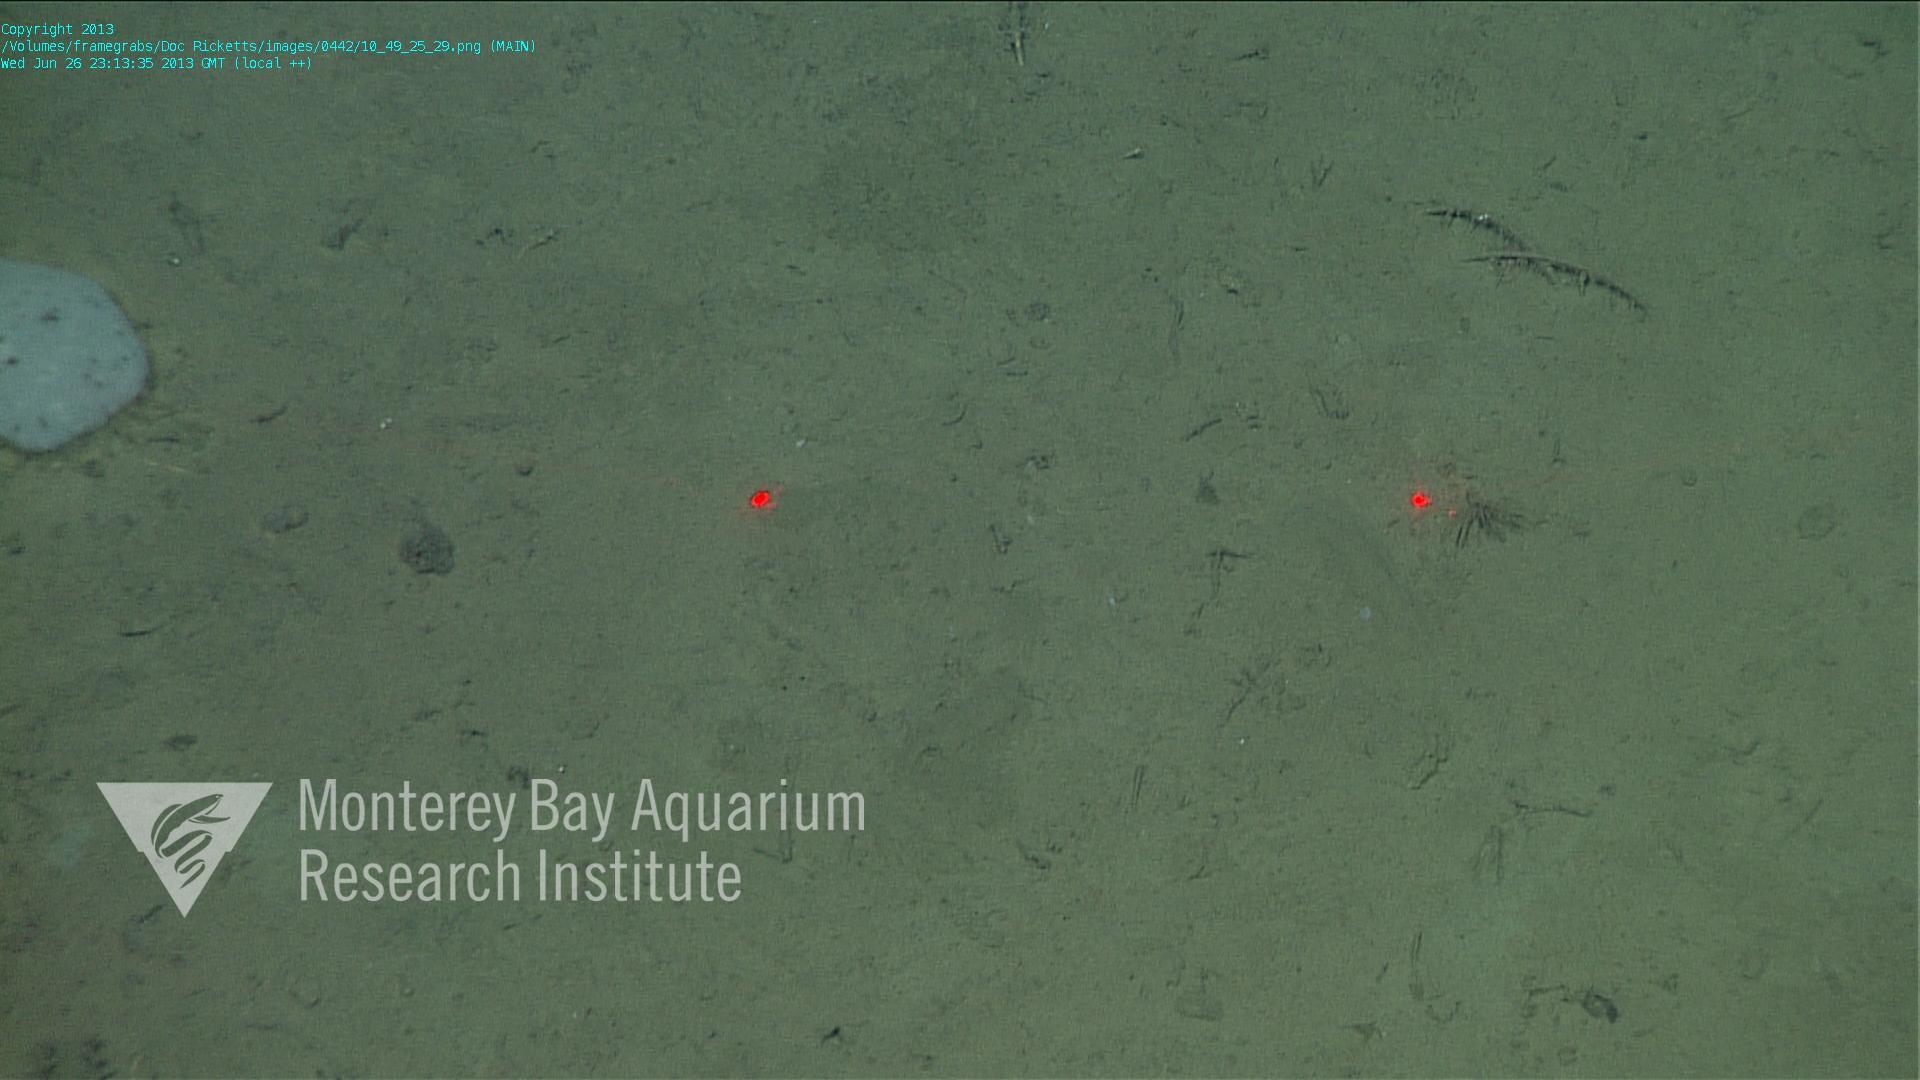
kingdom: Animalia
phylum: Porifera
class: Hexactinellida
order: Lyssacinosida
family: Euplectellidae
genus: Docosaccus
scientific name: Docosaccus maculatus
